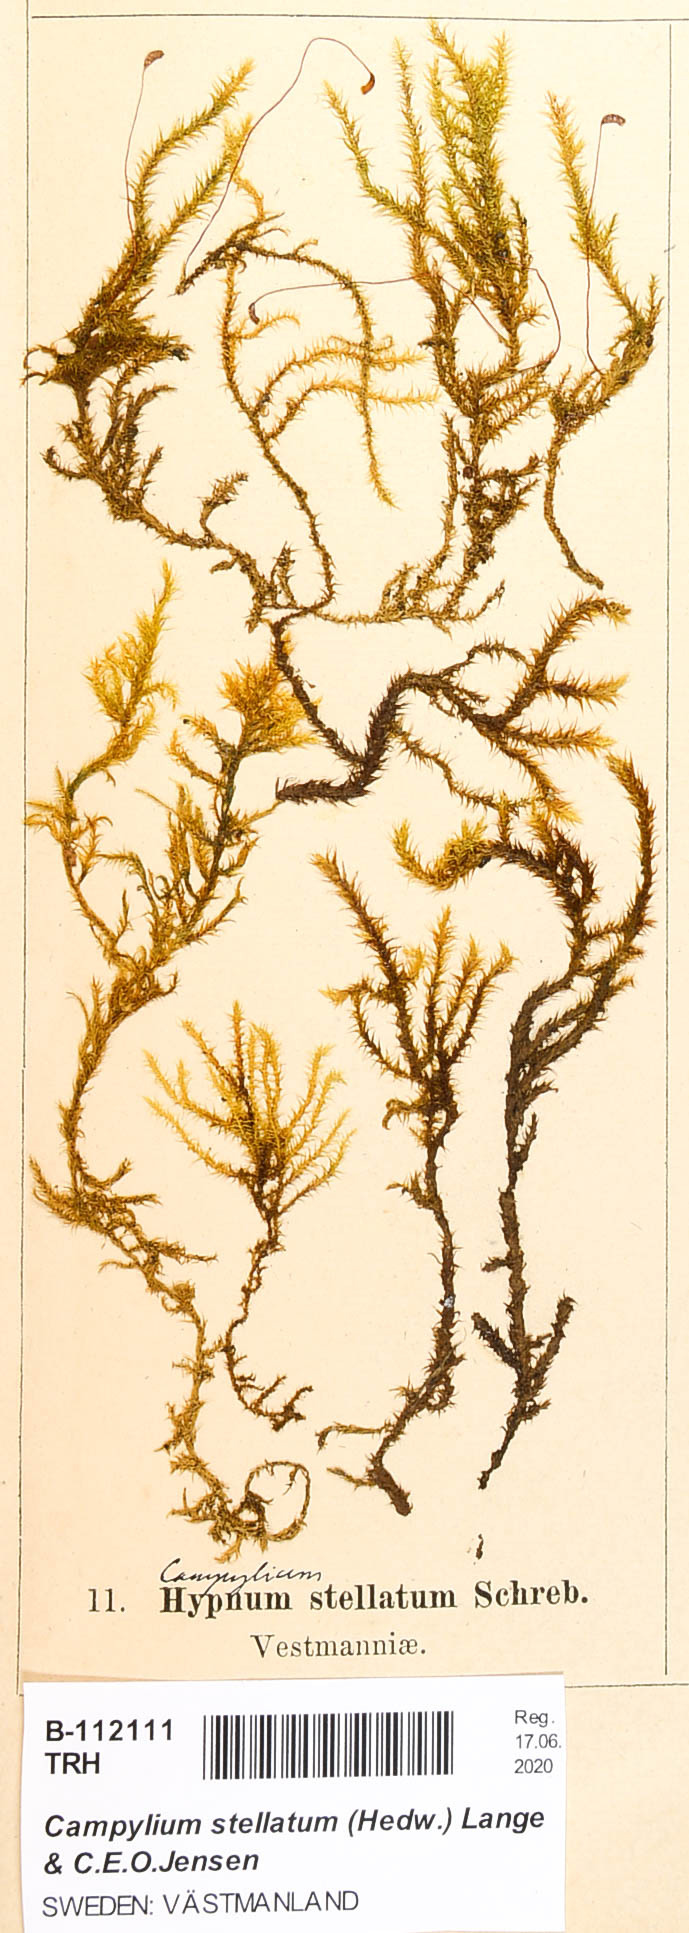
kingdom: Plantae
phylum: Bryophyta
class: Bryopsida
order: Hypnales
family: Amblystegiaceae
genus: Campylium
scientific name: Campylium stellatum
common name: Yellow starry fen moss
